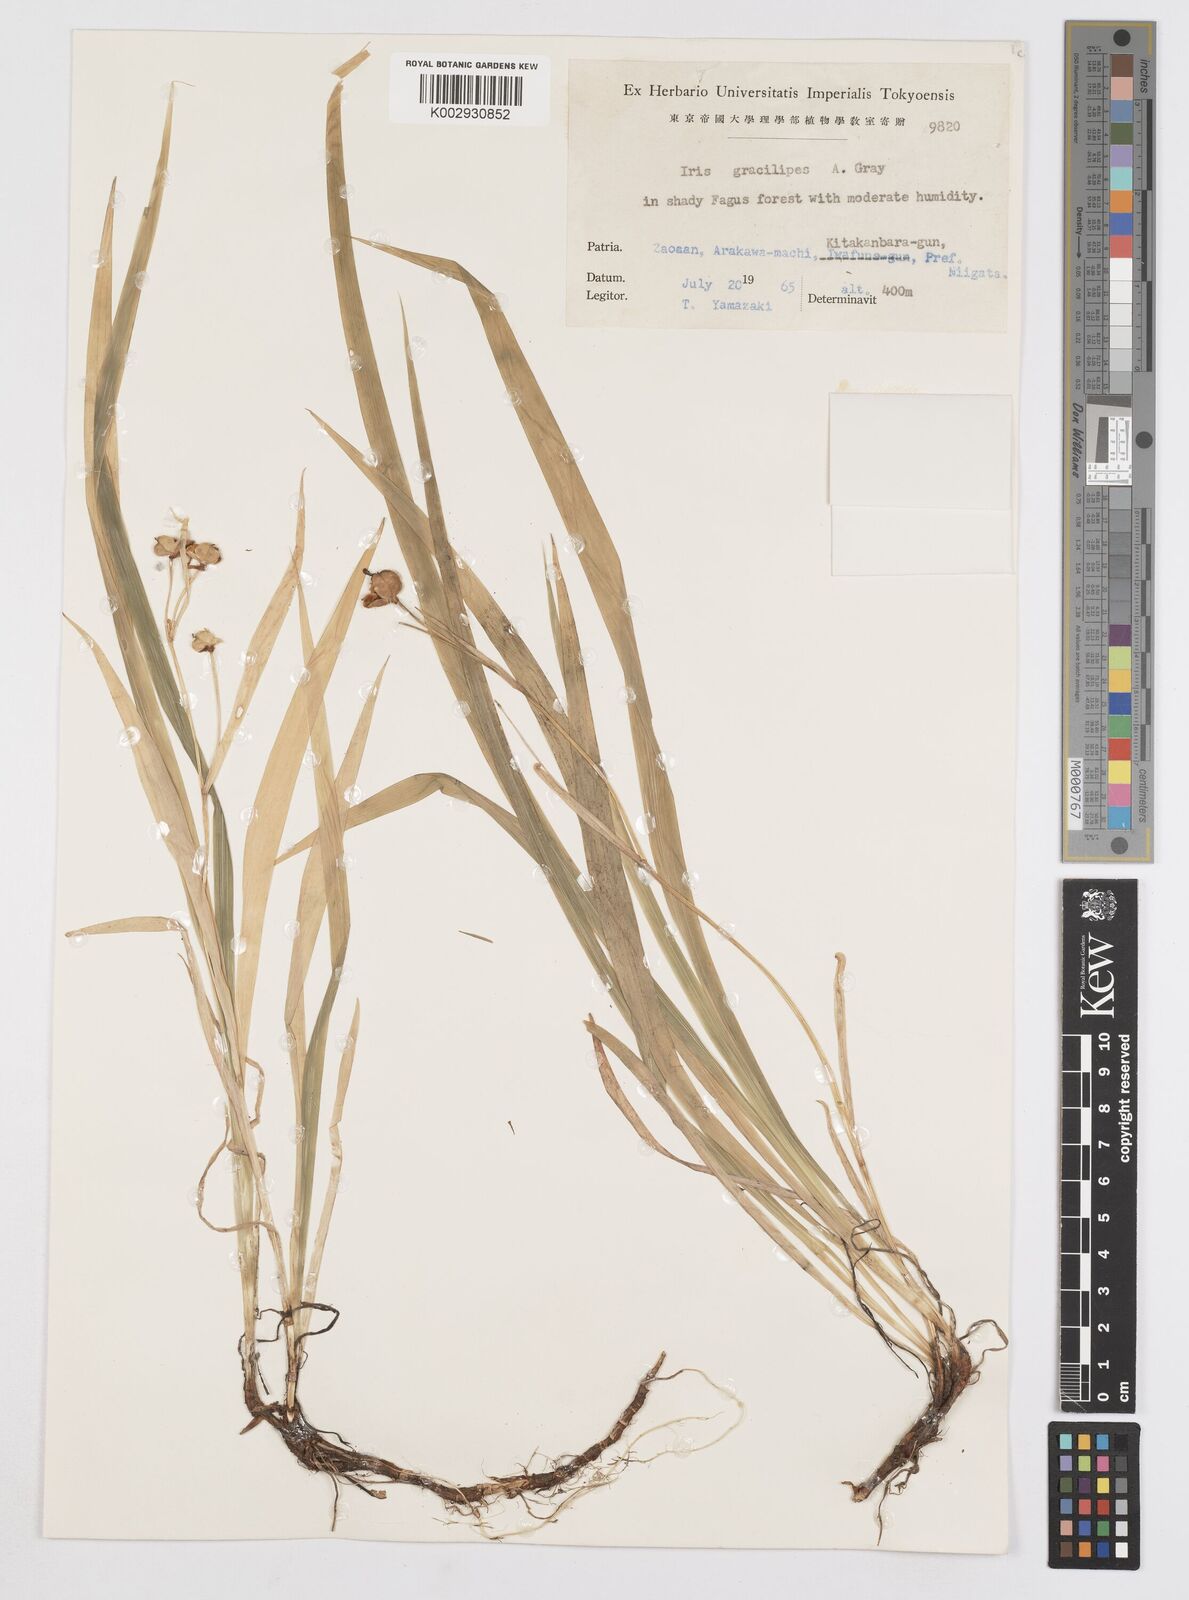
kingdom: Plantae
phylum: Tracheophyta
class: Liliopsida
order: Asparagales
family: Iridaceae
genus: Iris
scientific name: Iris gracilipes
